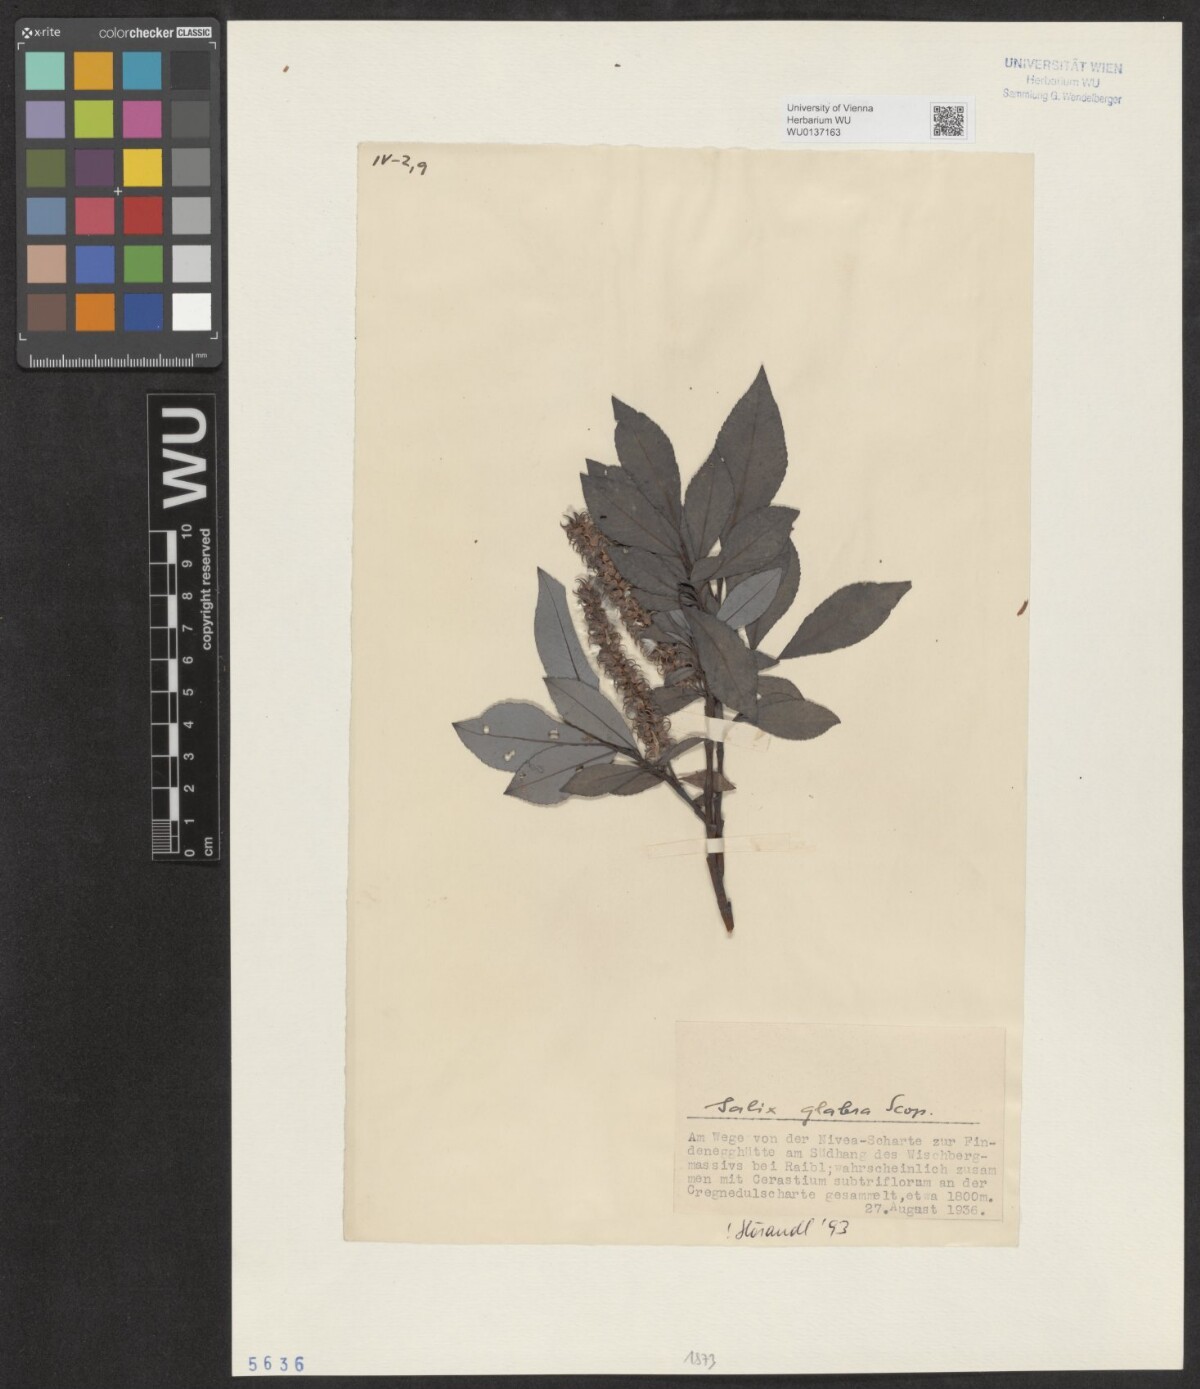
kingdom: Plantae
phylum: Tracheophyta
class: Magnoliopsida
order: Malpighiales
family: Salicaceae
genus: Salix
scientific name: Salix glabra
